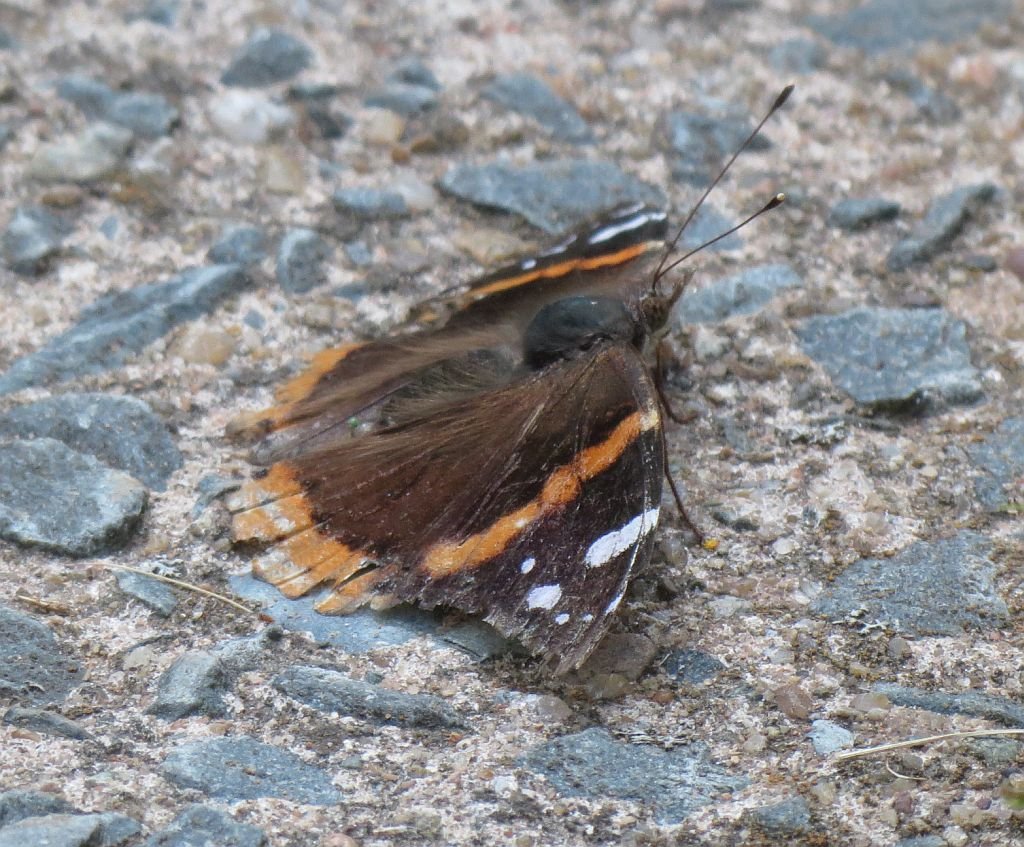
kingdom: Animalia
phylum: Arthropoda
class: Insecta
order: Lepidoptera
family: Nymphalidae
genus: Vanessa
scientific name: Vanessa atalanta
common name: Red Admiral
